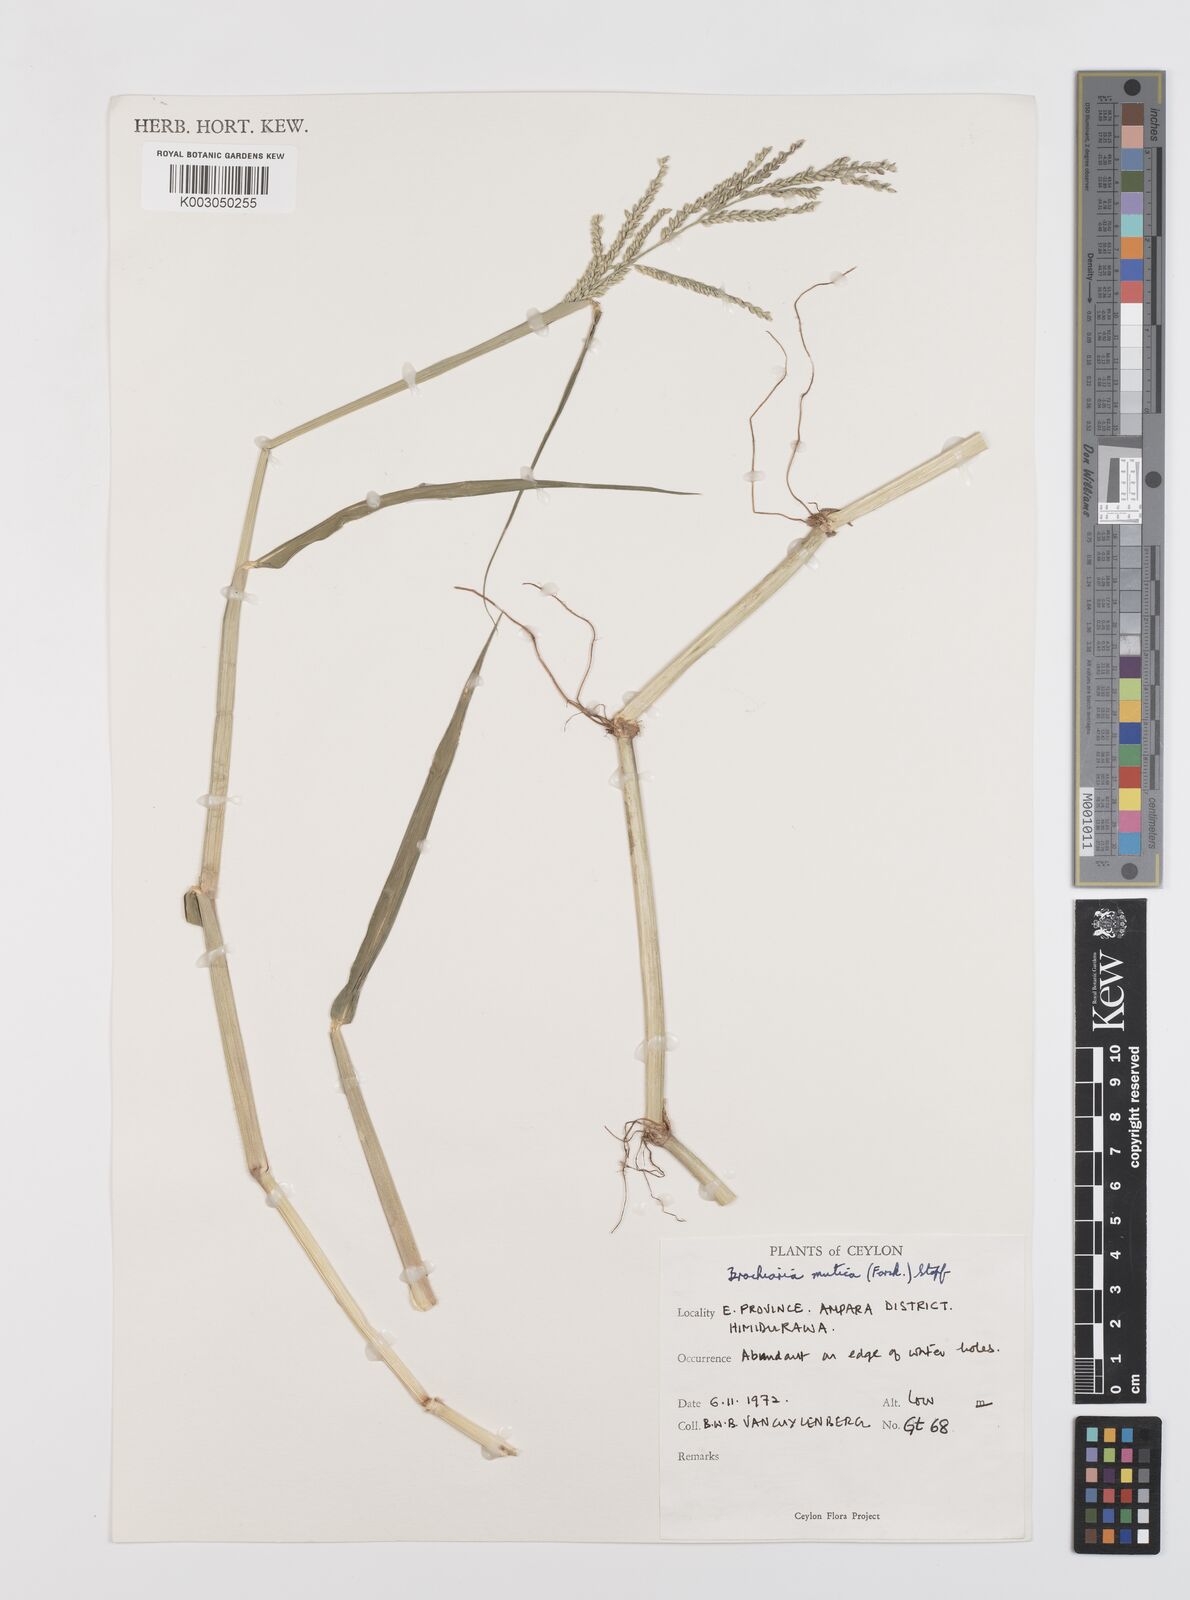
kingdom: Plantae
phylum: Tracheophyta
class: Liliopsida
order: Poales
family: Poaceae
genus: Urochloa
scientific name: Urochloa mutica
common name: Para grass
